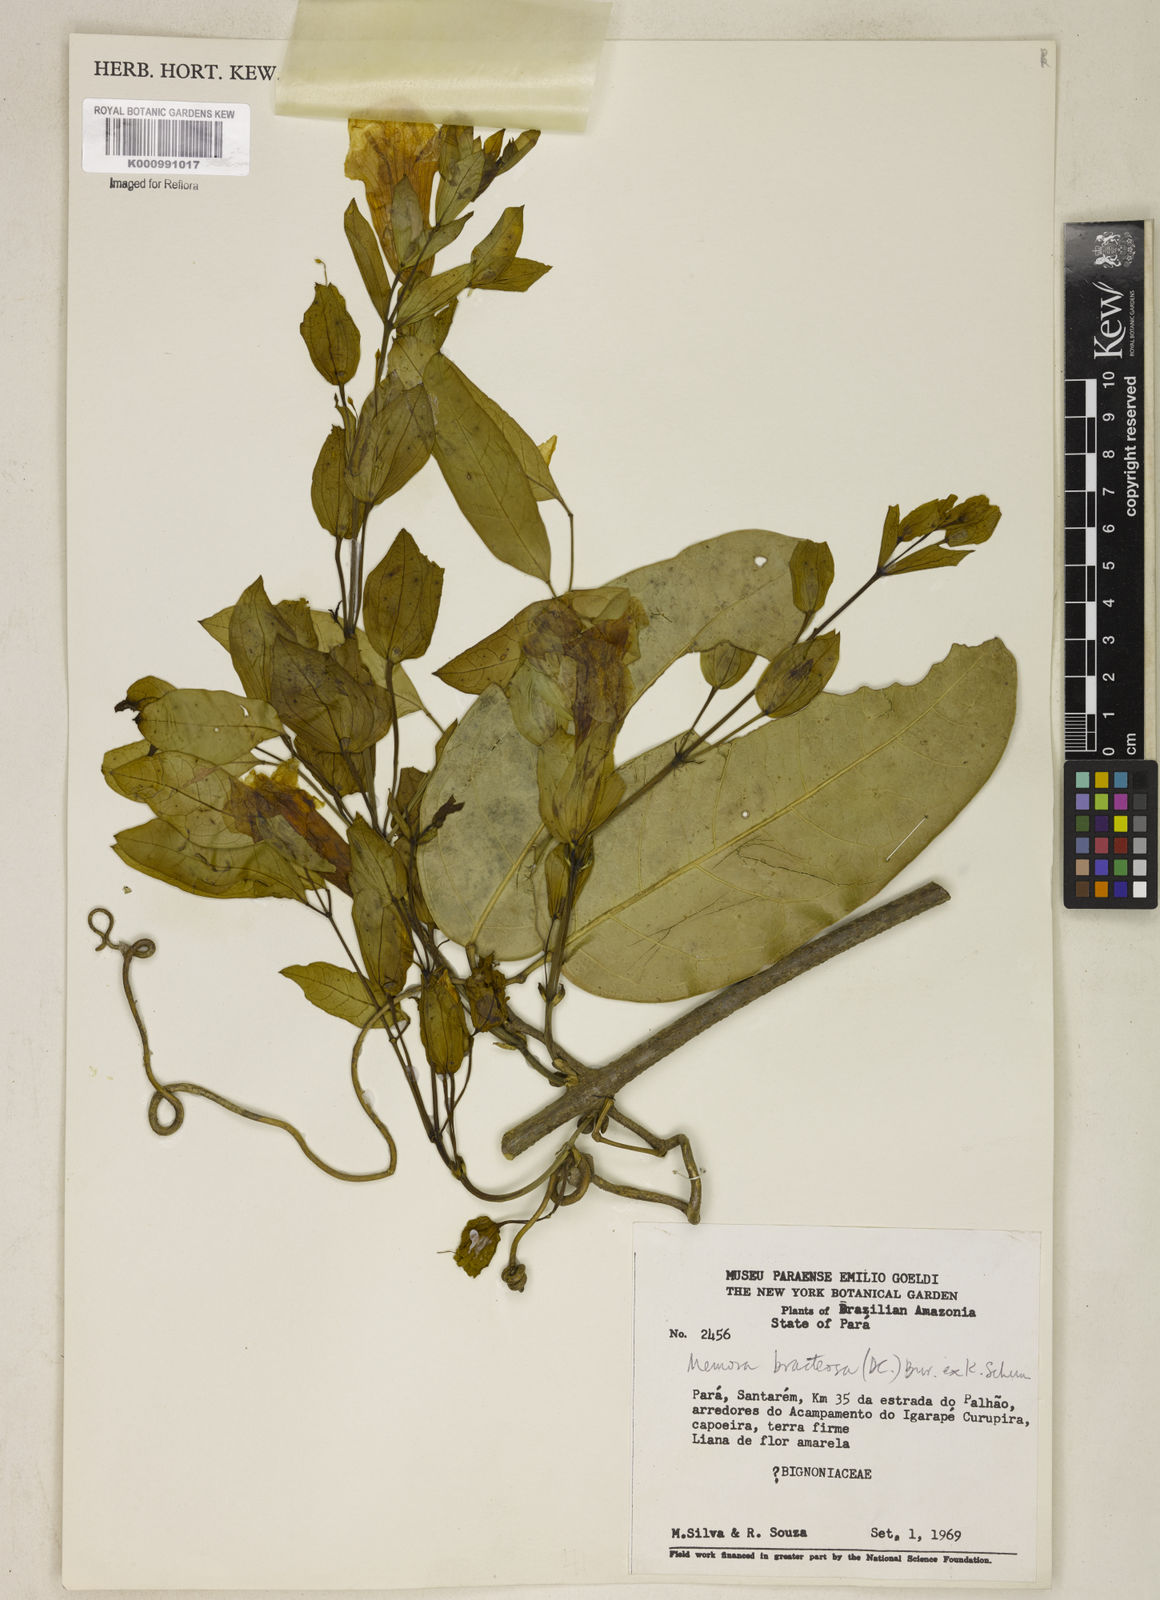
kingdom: Plantae
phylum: Tracheophyta
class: Magnoliopsida
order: Lamiales
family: Bignoniaceae
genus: Adenocalymma
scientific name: Adenocalymma
